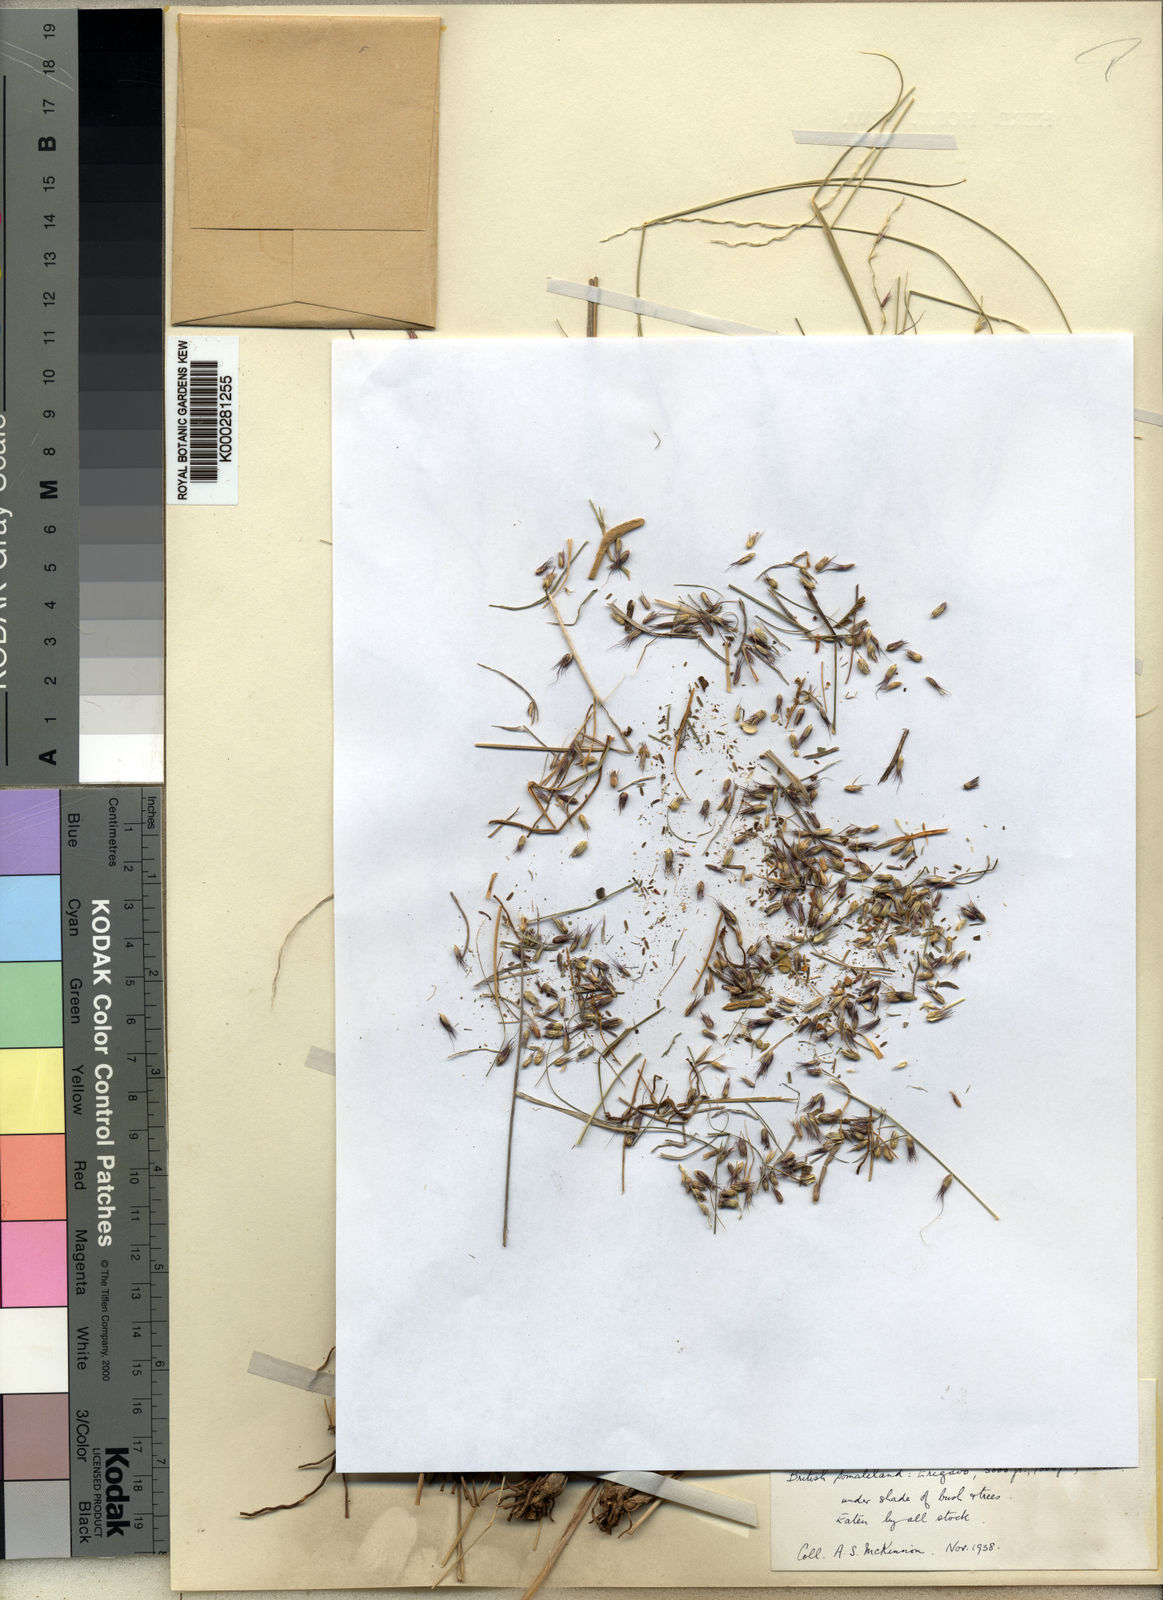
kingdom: Plantae
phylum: Tracheophyta
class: Liliopsida
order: Poales
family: Poaceae
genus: Cenchrus
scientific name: Cenchrus somalensis
